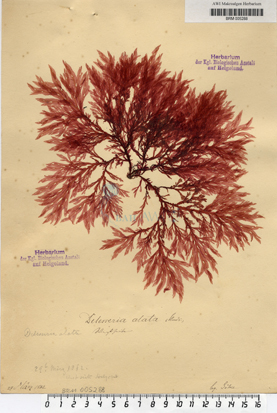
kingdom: Plantae
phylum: Rhodophyta
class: Florideophyceae
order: Ceramiales
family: Delesseriaceae
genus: Membranoptera
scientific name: Membranoptera alata
